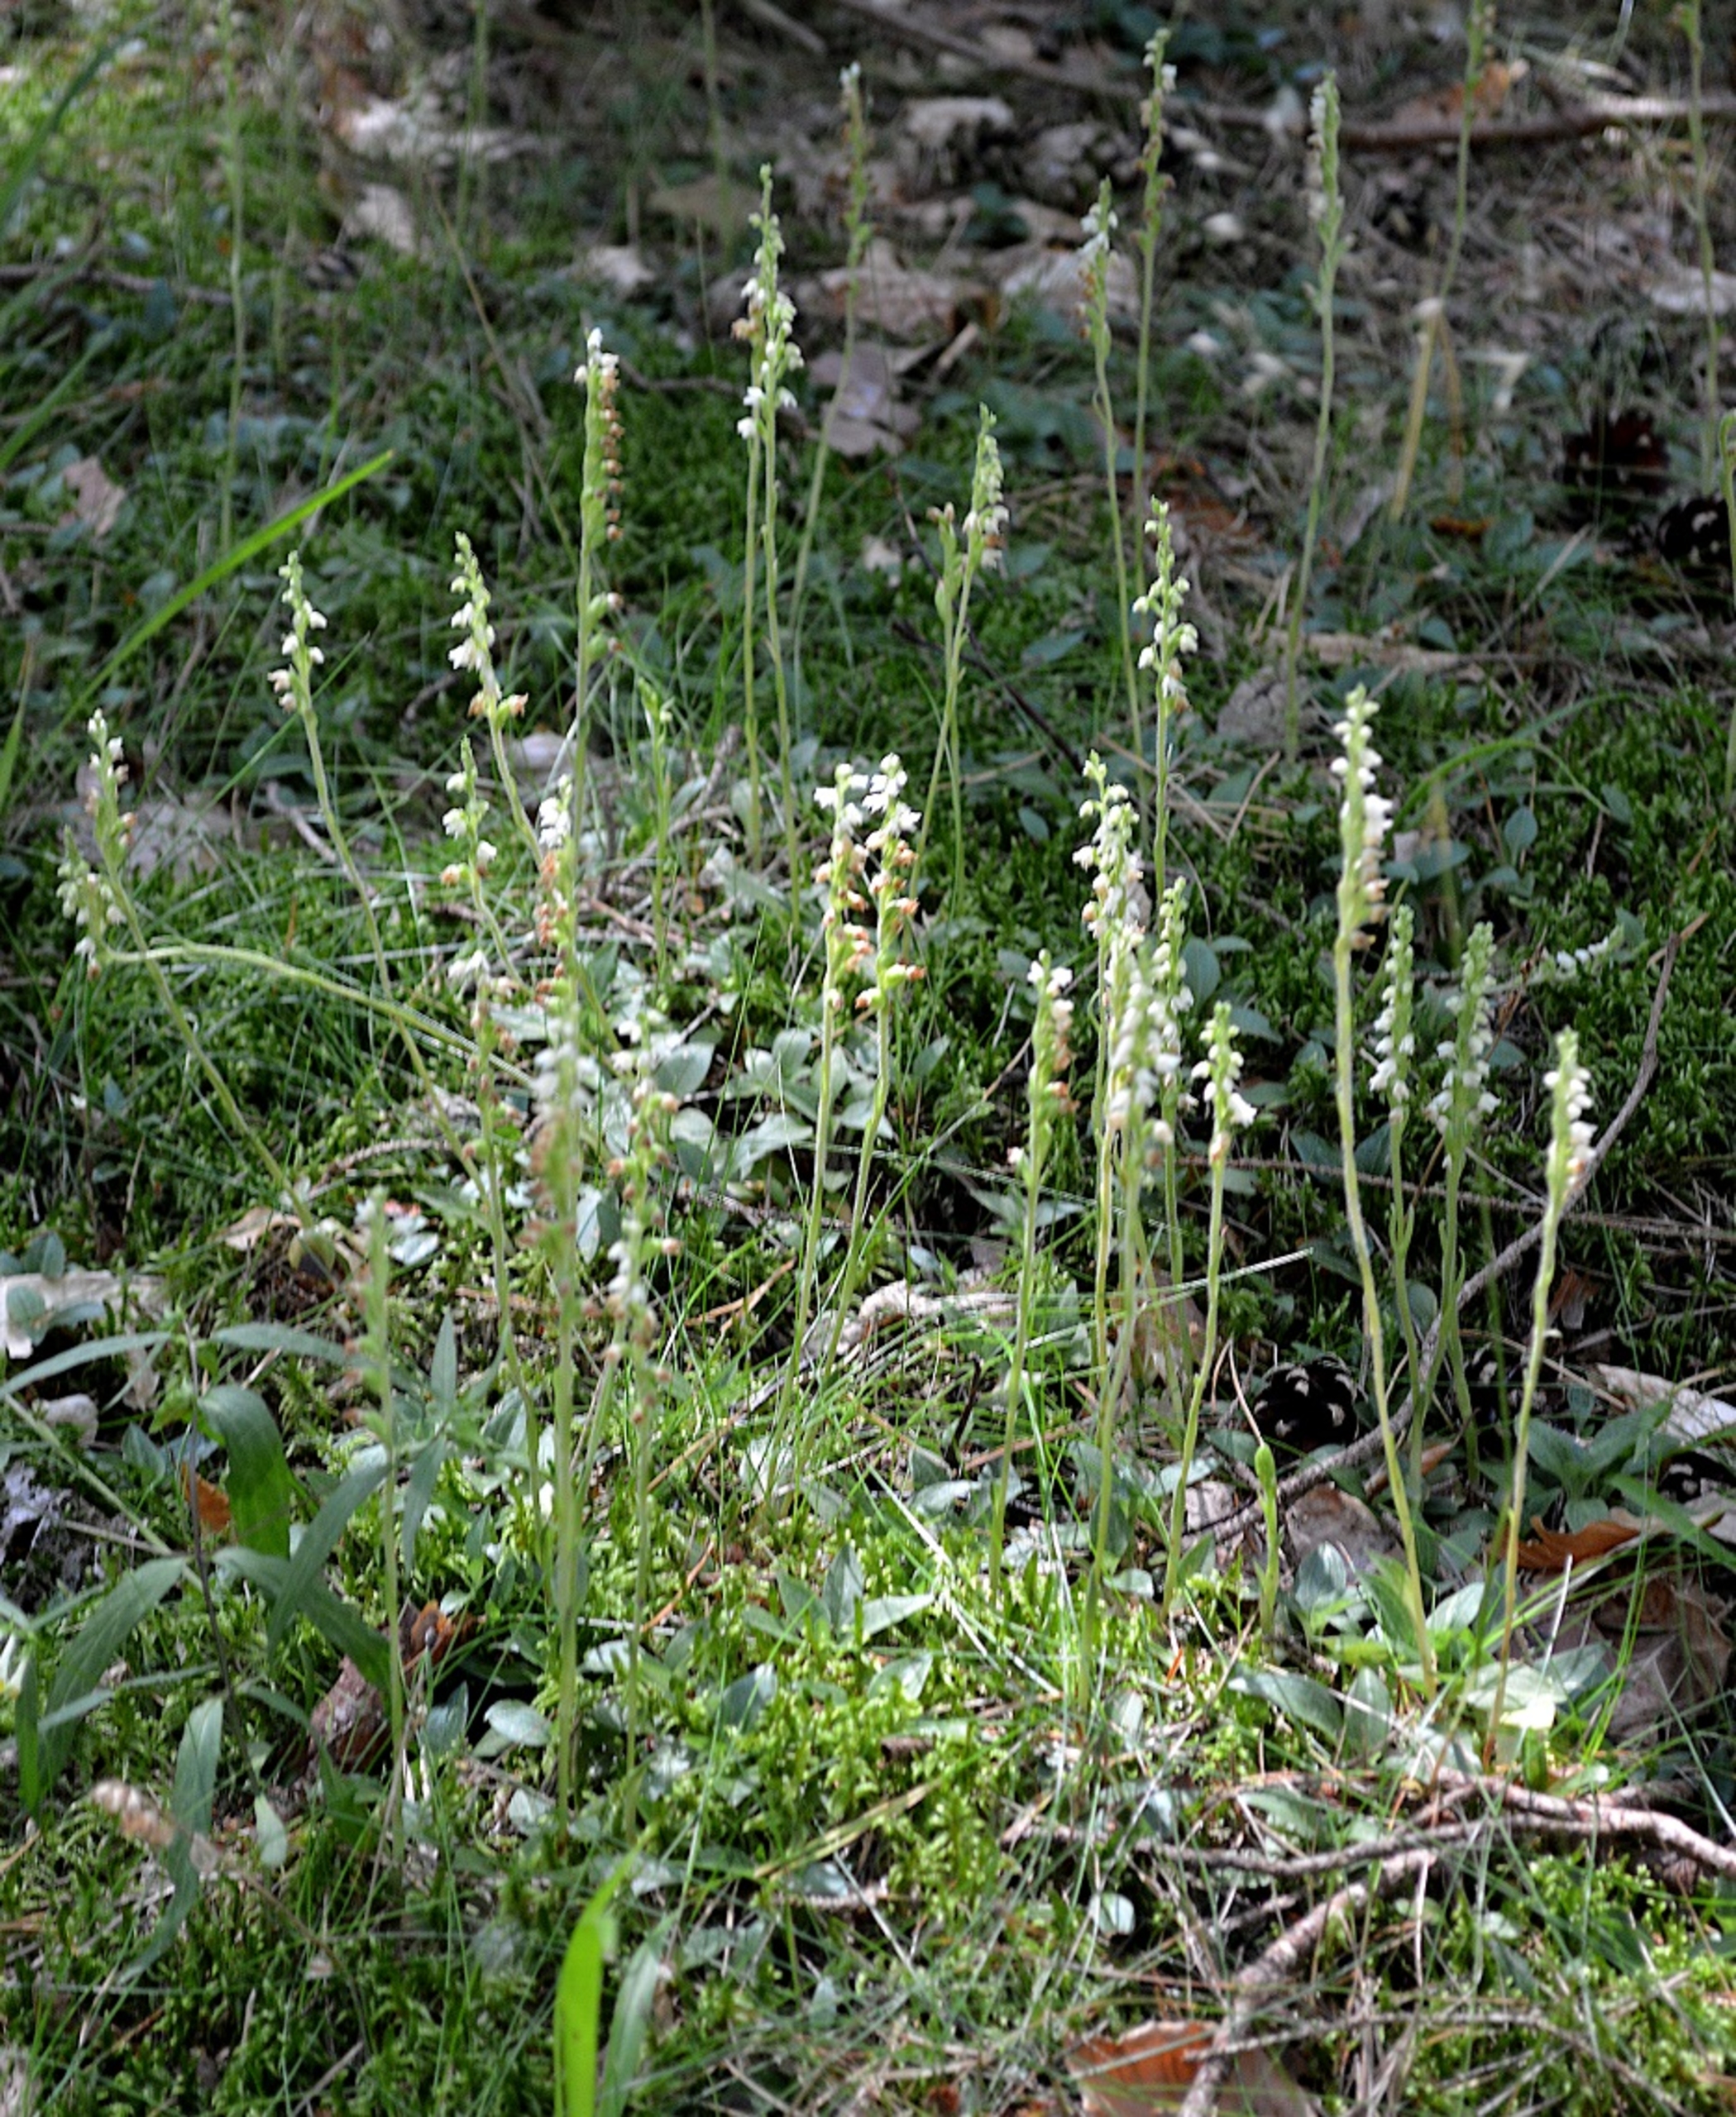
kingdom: Plantae
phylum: Tracheophyta
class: Liliopsida
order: Asparagales
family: Orchidaceae
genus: Goodyera
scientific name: Goodyera repens
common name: Knærod
